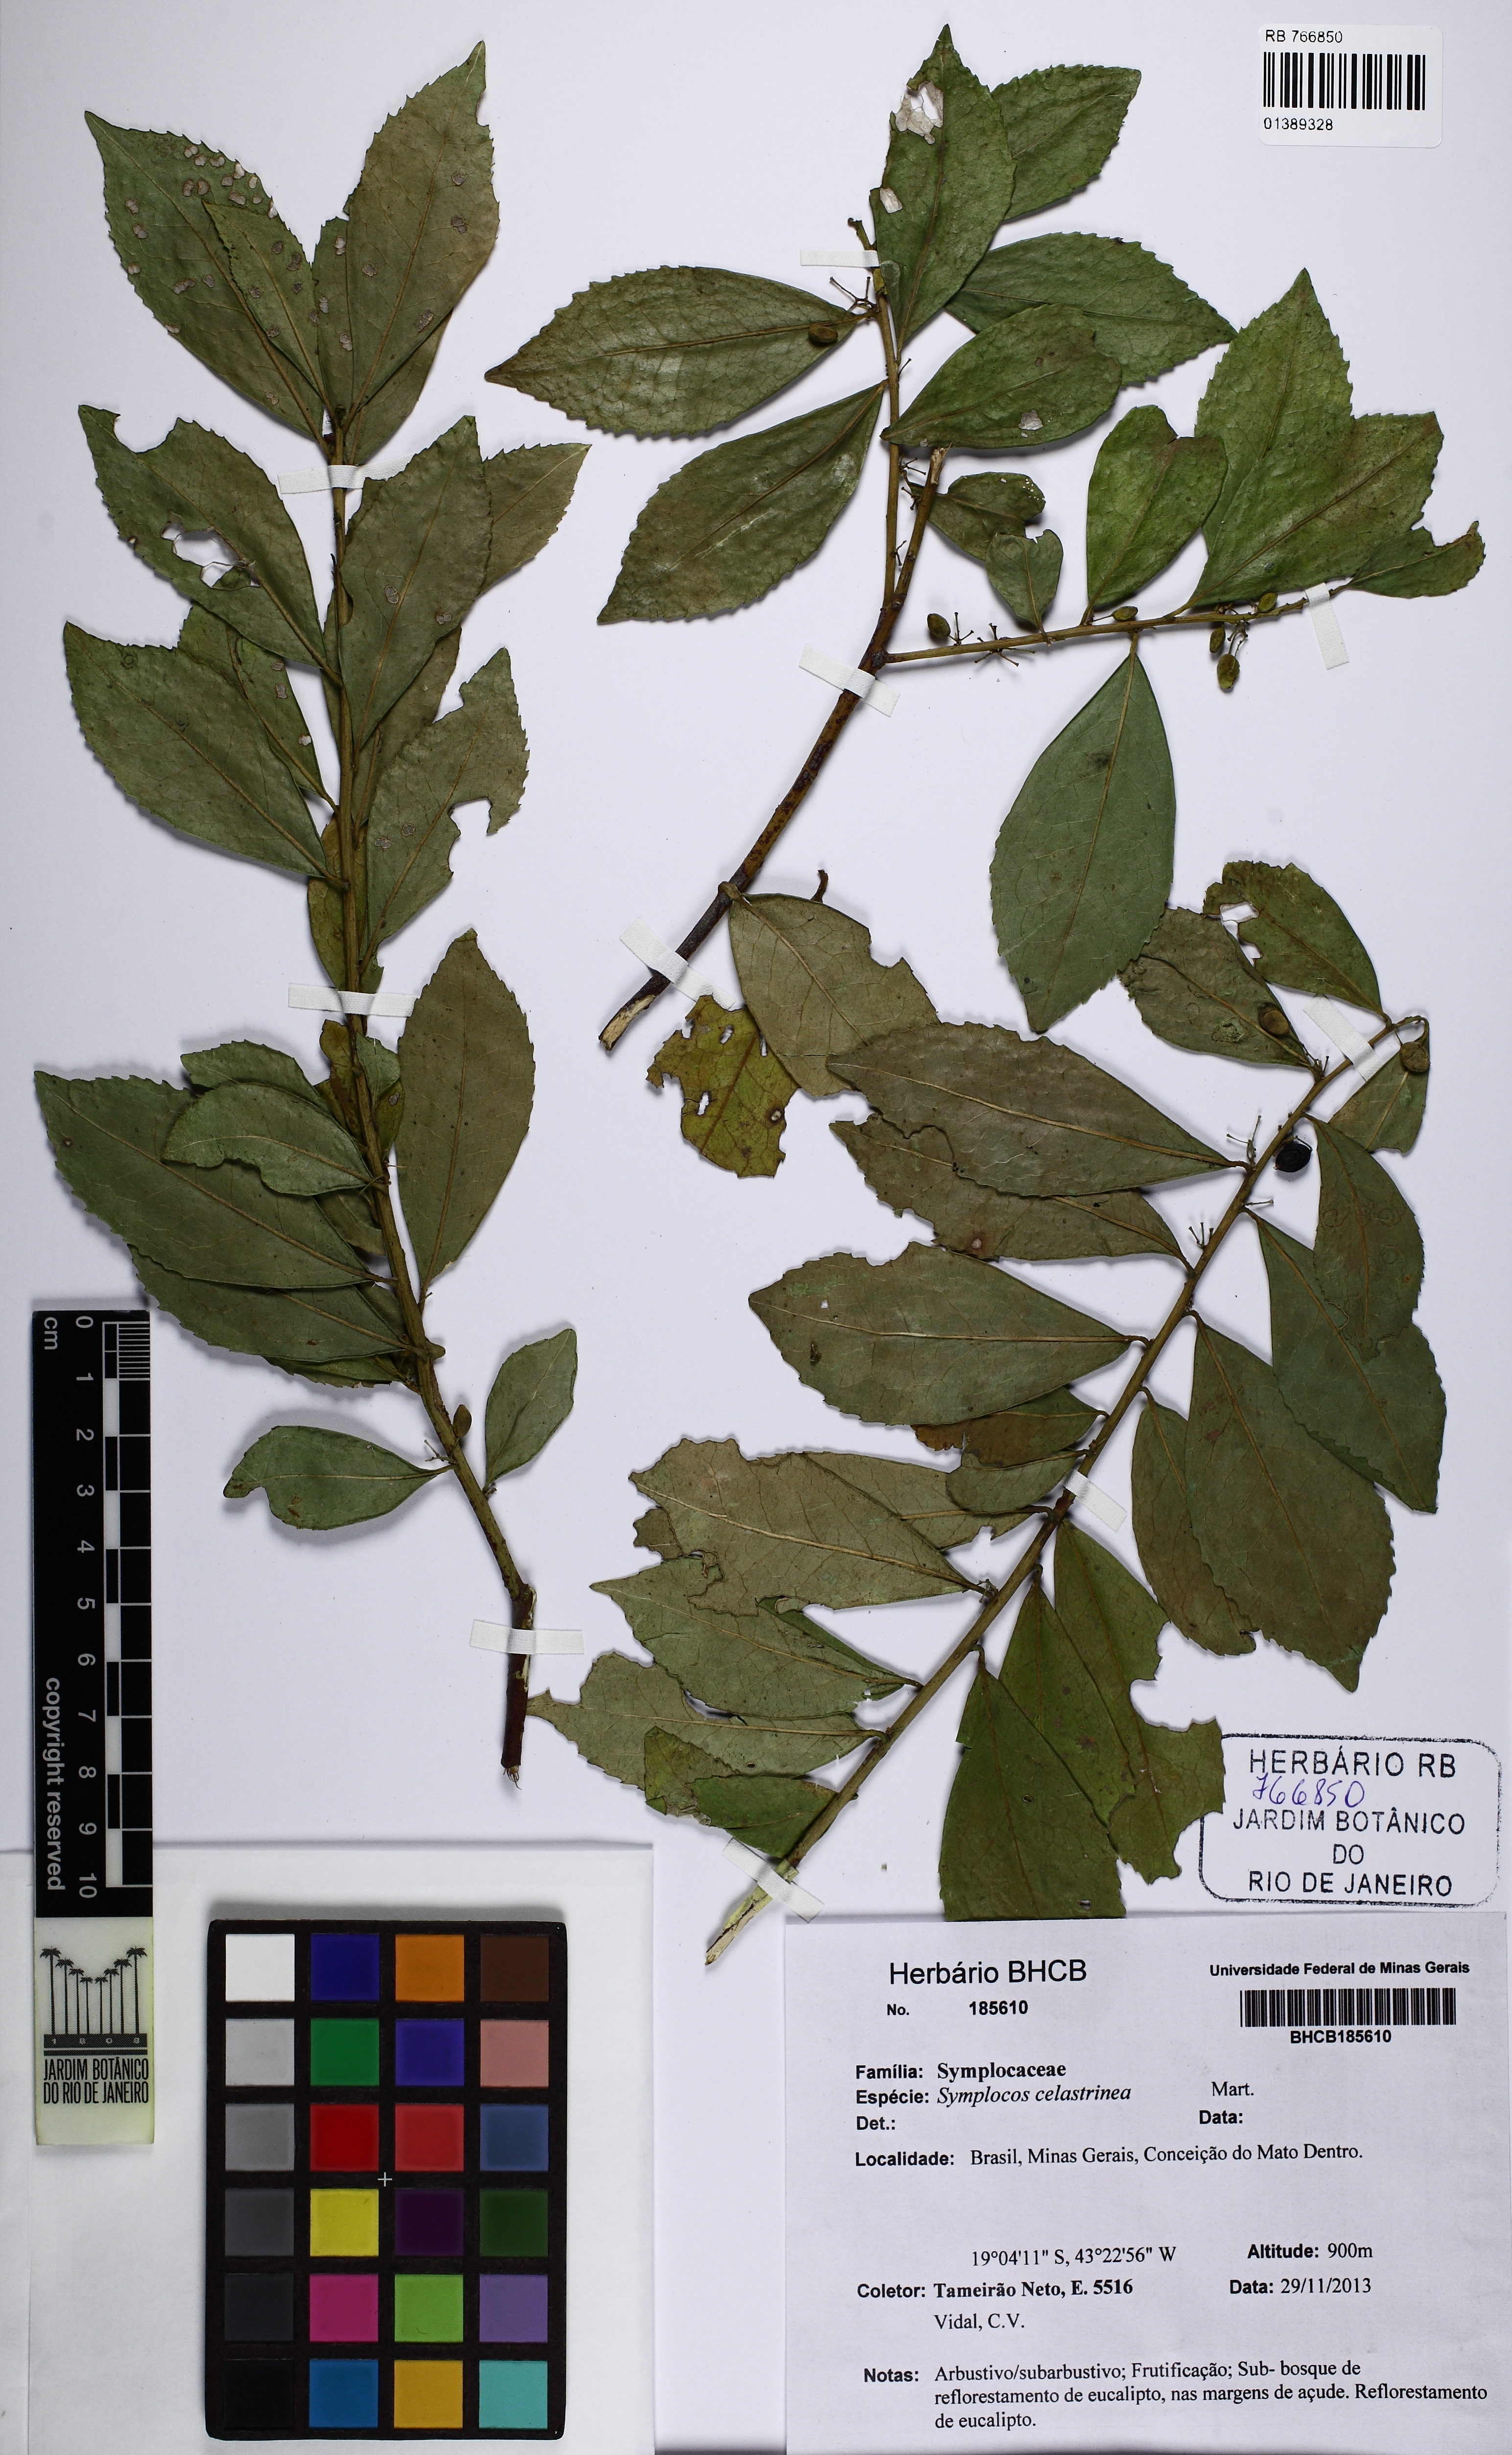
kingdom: Plantae
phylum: Tracheophyta
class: Magnoliopsida
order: Ericales
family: Symplocaceae
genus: Symplocos
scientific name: Symplocos celastrinea
